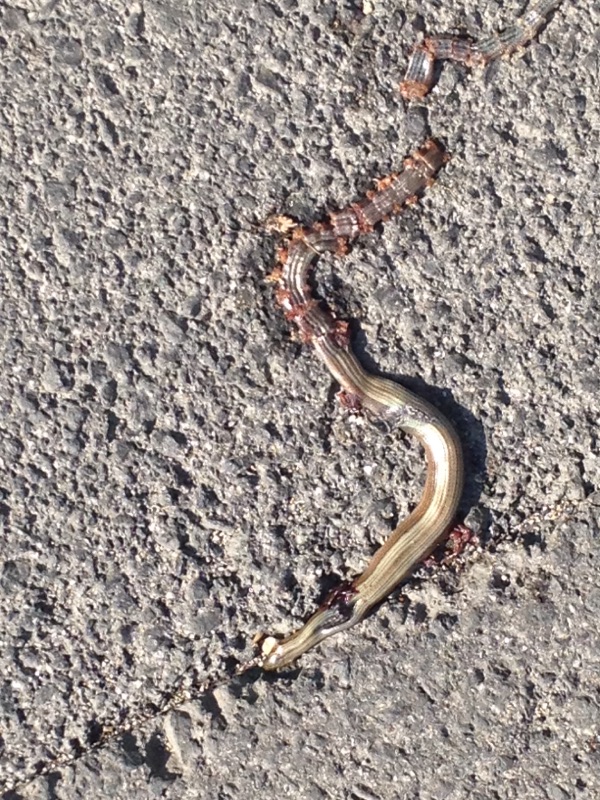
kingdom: Animalia
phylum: Chordata
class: Squamata
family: Anguidae
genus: Anguis
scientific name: Anguis fragilis
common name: Slow worm
